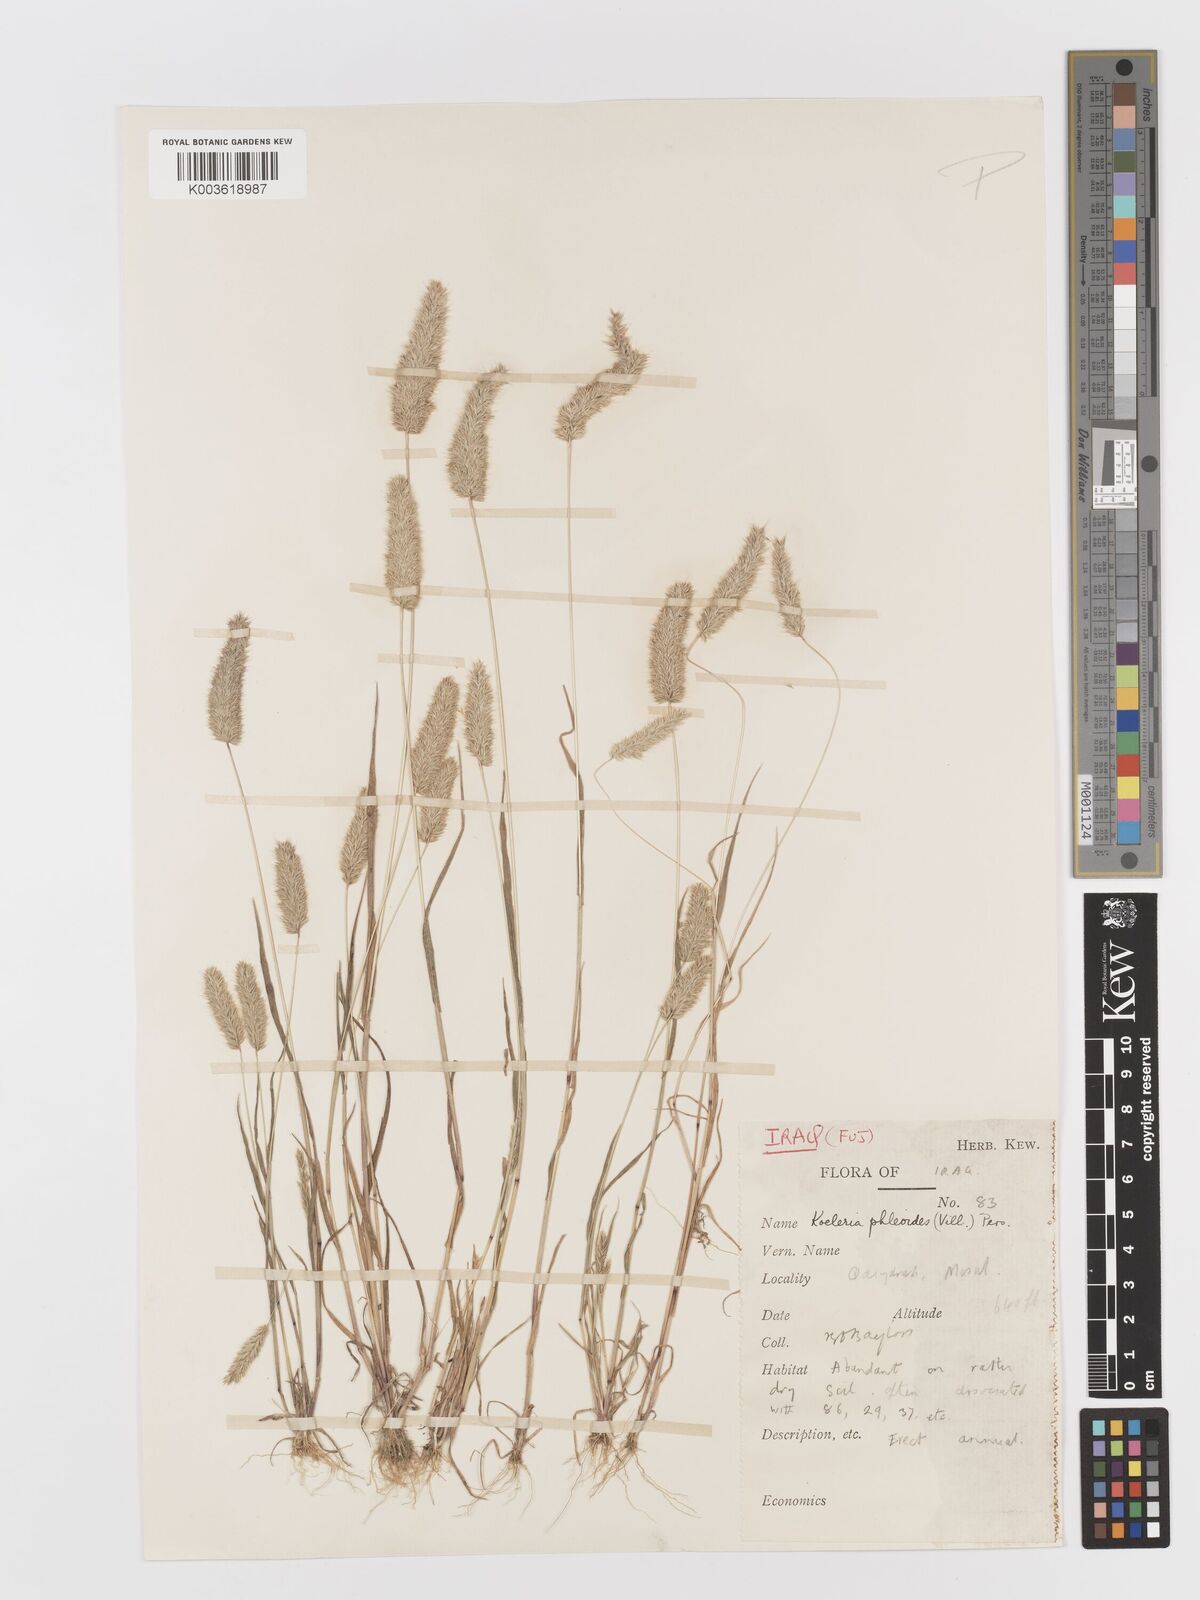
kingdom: Plantae
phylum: Tracheophyta
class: Liliopsida
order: Poales
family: Poaceae
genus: Rostraria
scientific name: Rostraria cristata
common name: Mediterranean hair-grass
